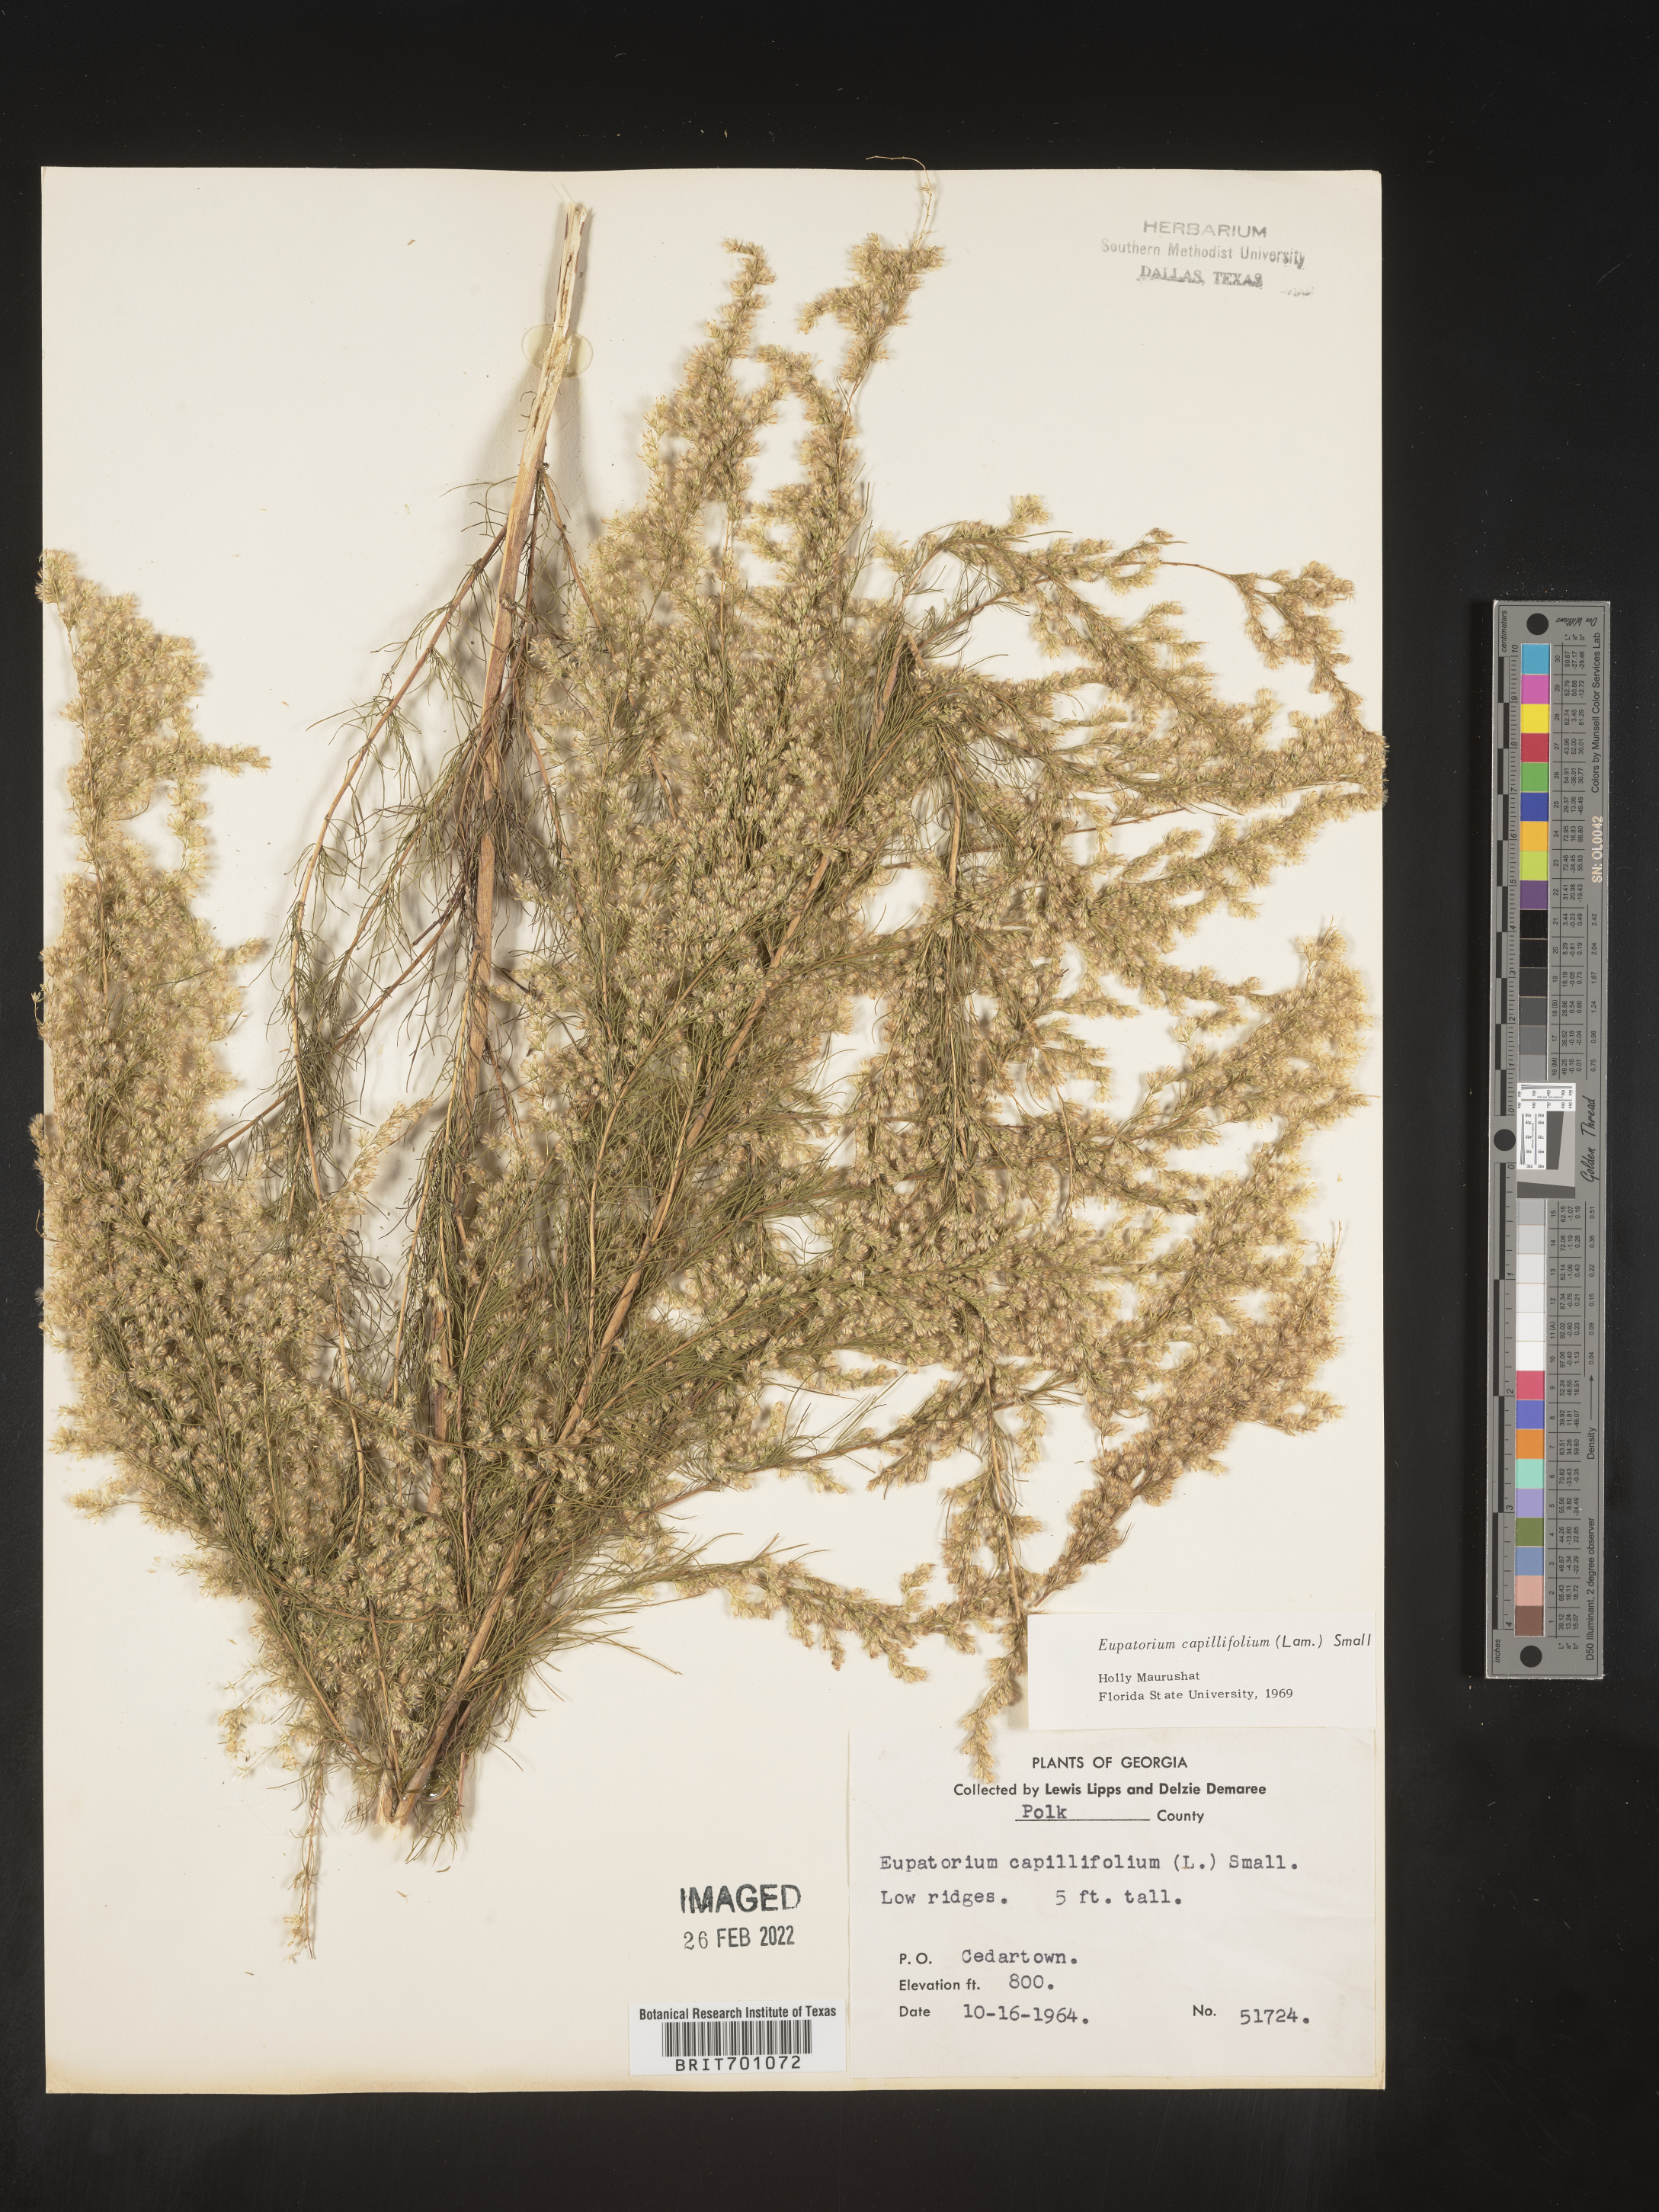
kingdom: Plantae
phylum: Tracheophyta
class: Magnoliopsida
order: Asterales
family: Asteraceae
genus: Eupatorium
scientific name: Eupatorium capillifolium
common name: Dog-fennel
